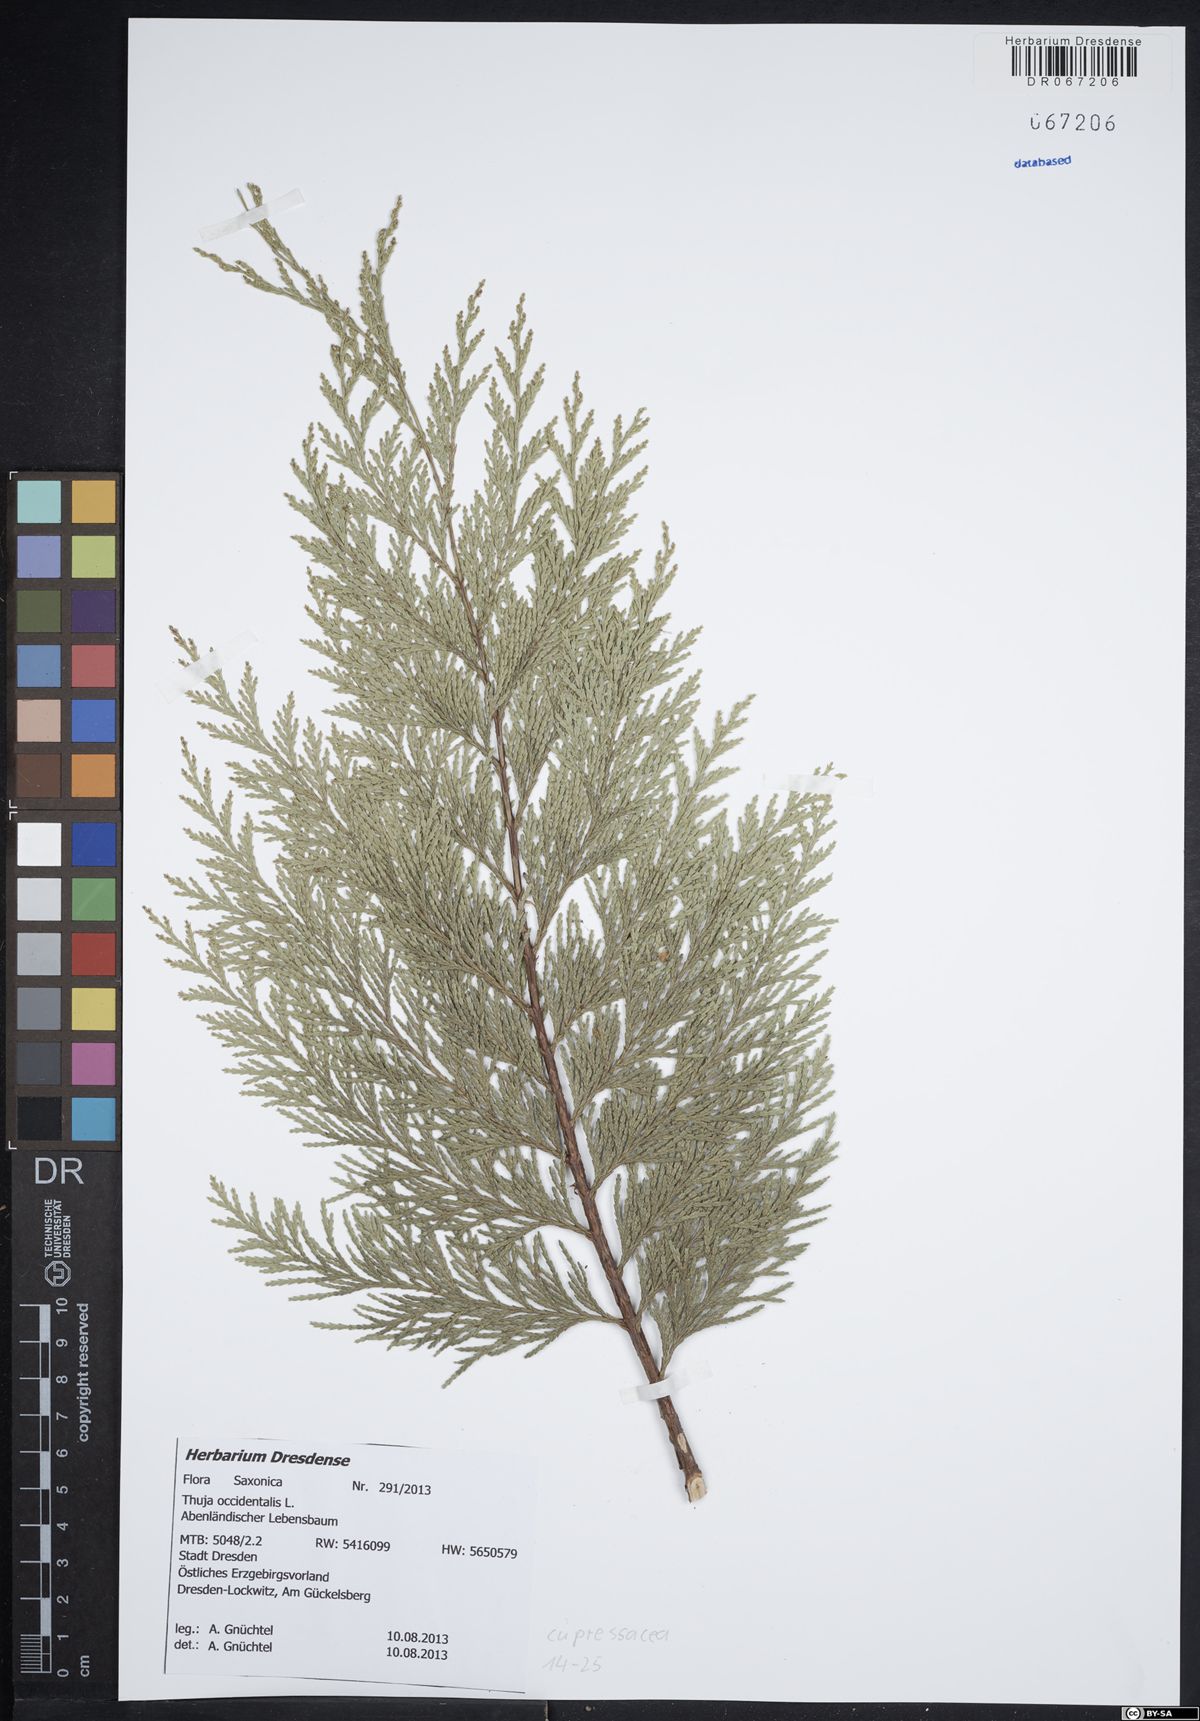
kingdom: Plantae
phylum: Tracheophyta
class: Pinopsida
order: Pinales
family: Cupressaceae
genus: Thuja
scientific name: Thuja occidentalis
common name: Northern white-cedar
